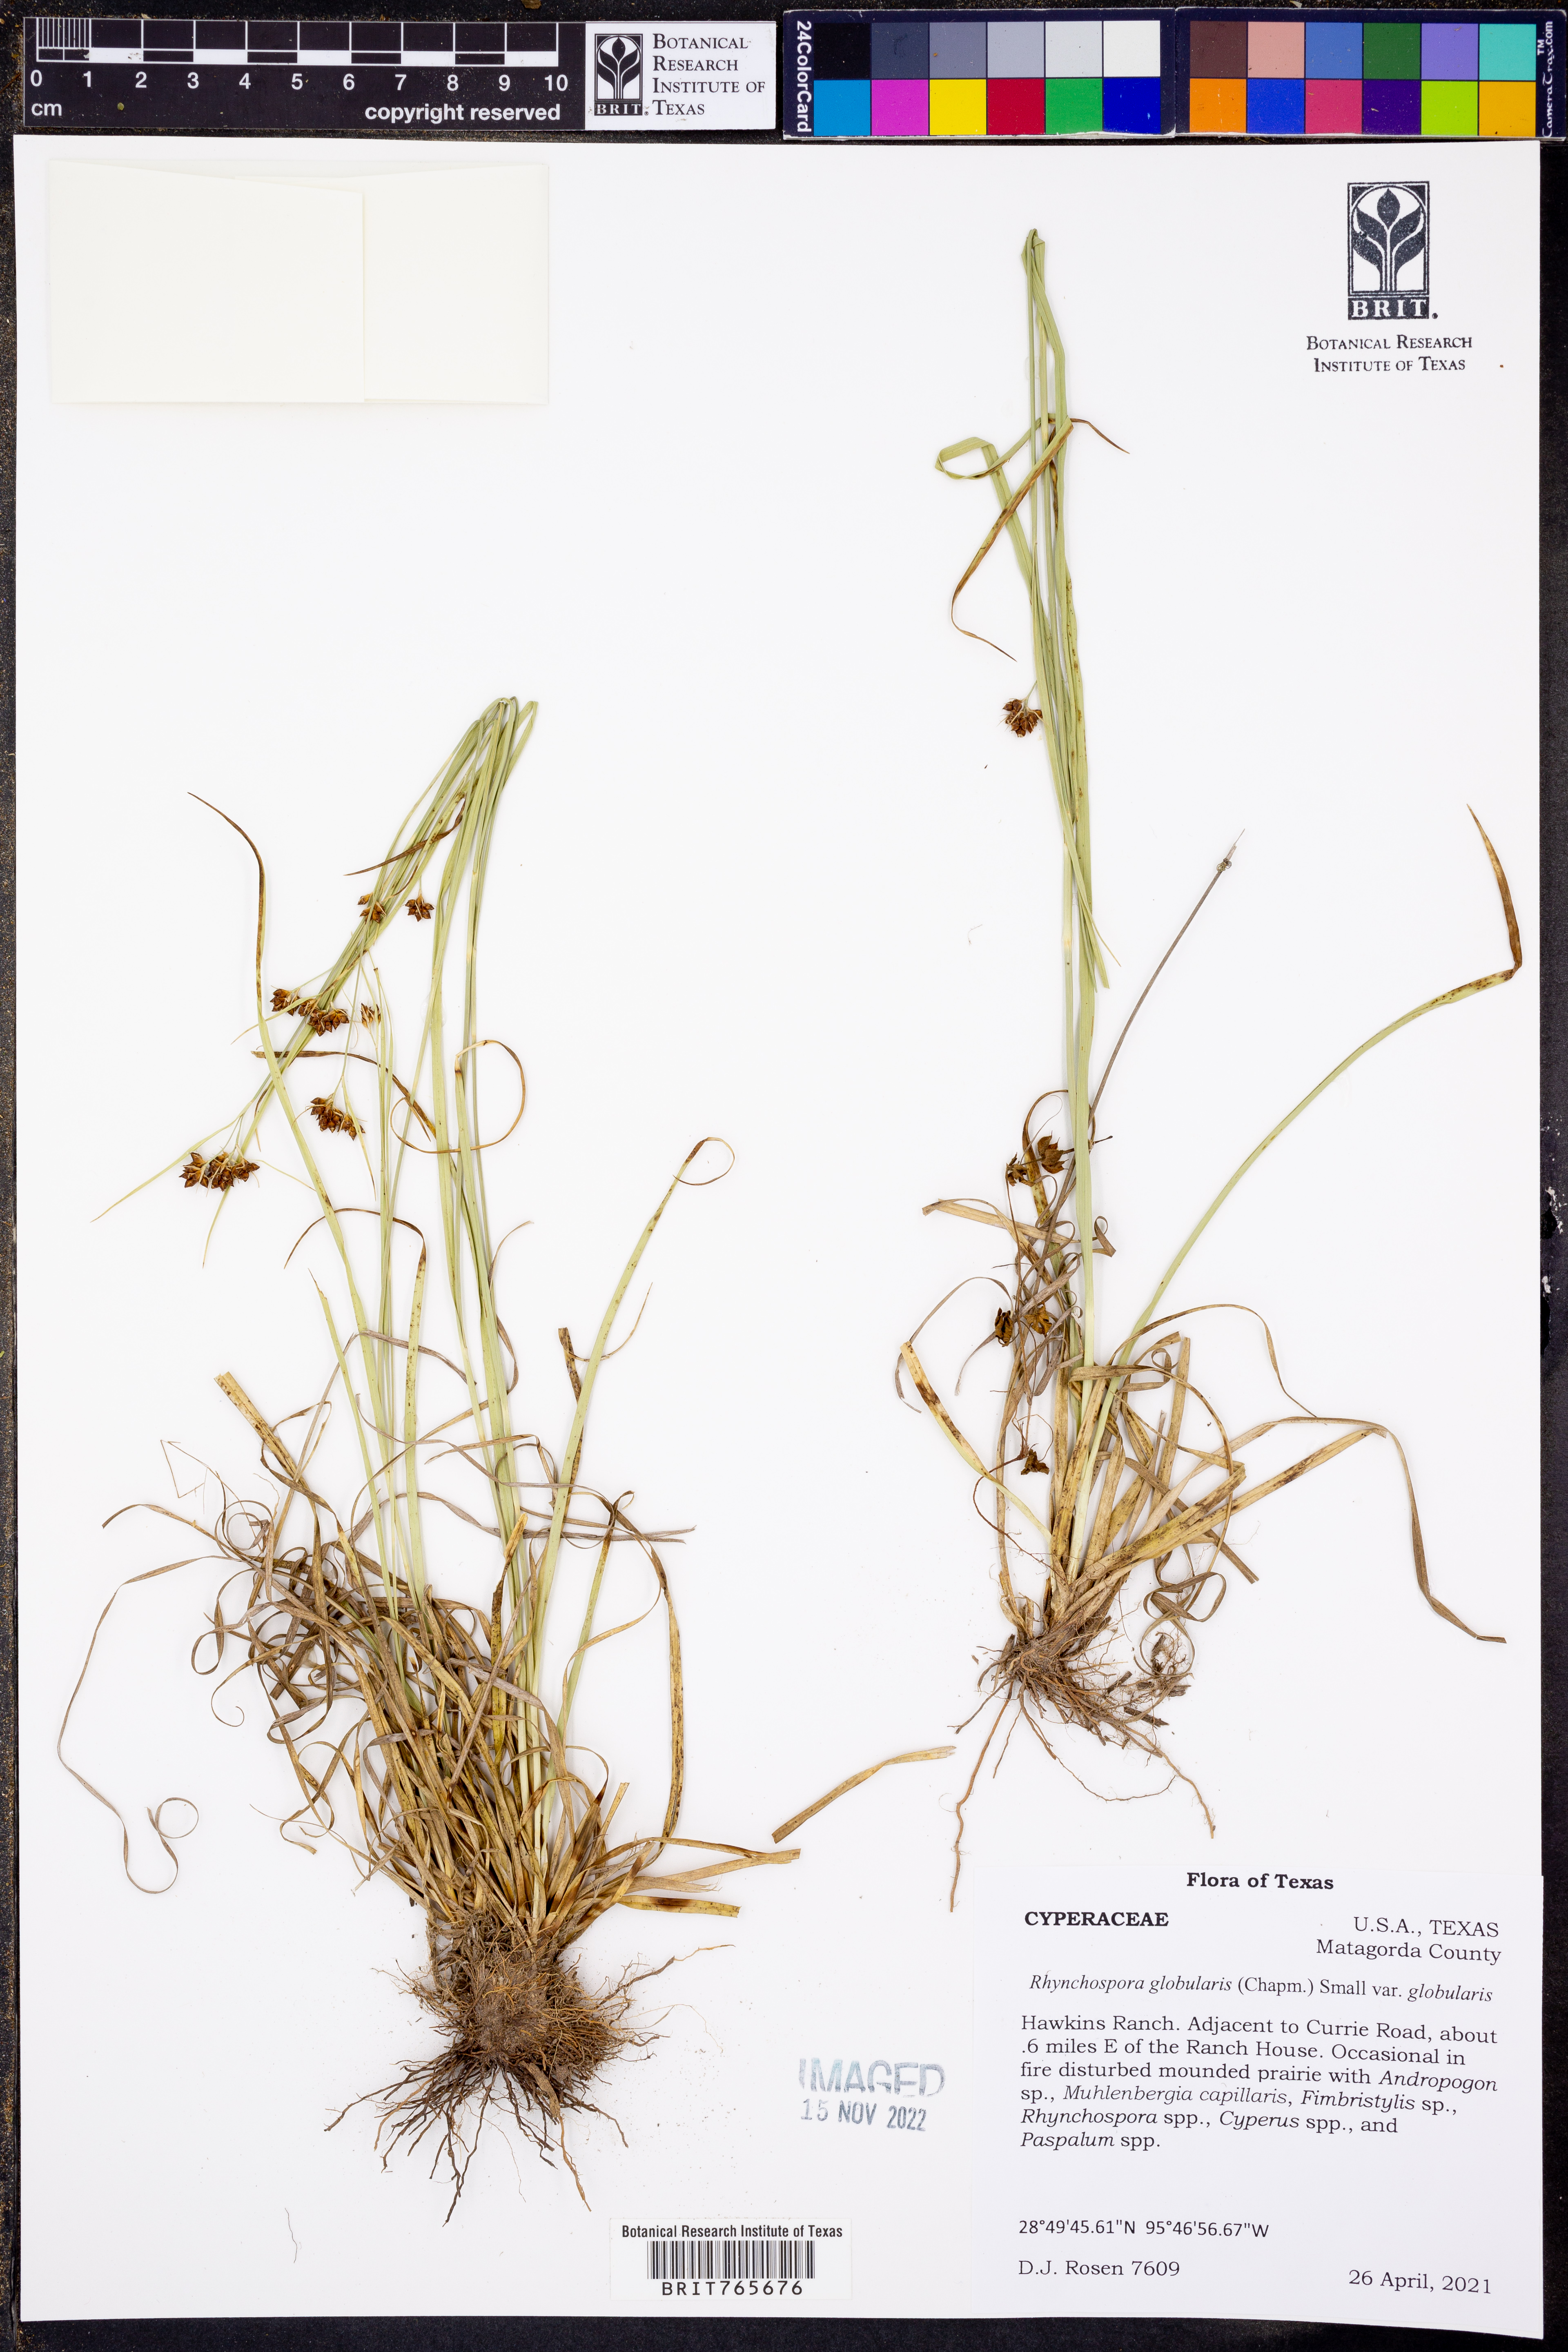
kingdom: Plantae
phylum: Tracheophyta
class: Liliopsida
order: Poales
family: Cyperaceae
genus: Rhynchospora
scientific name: Rhynchospora globularis
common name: Globe beaksedge
